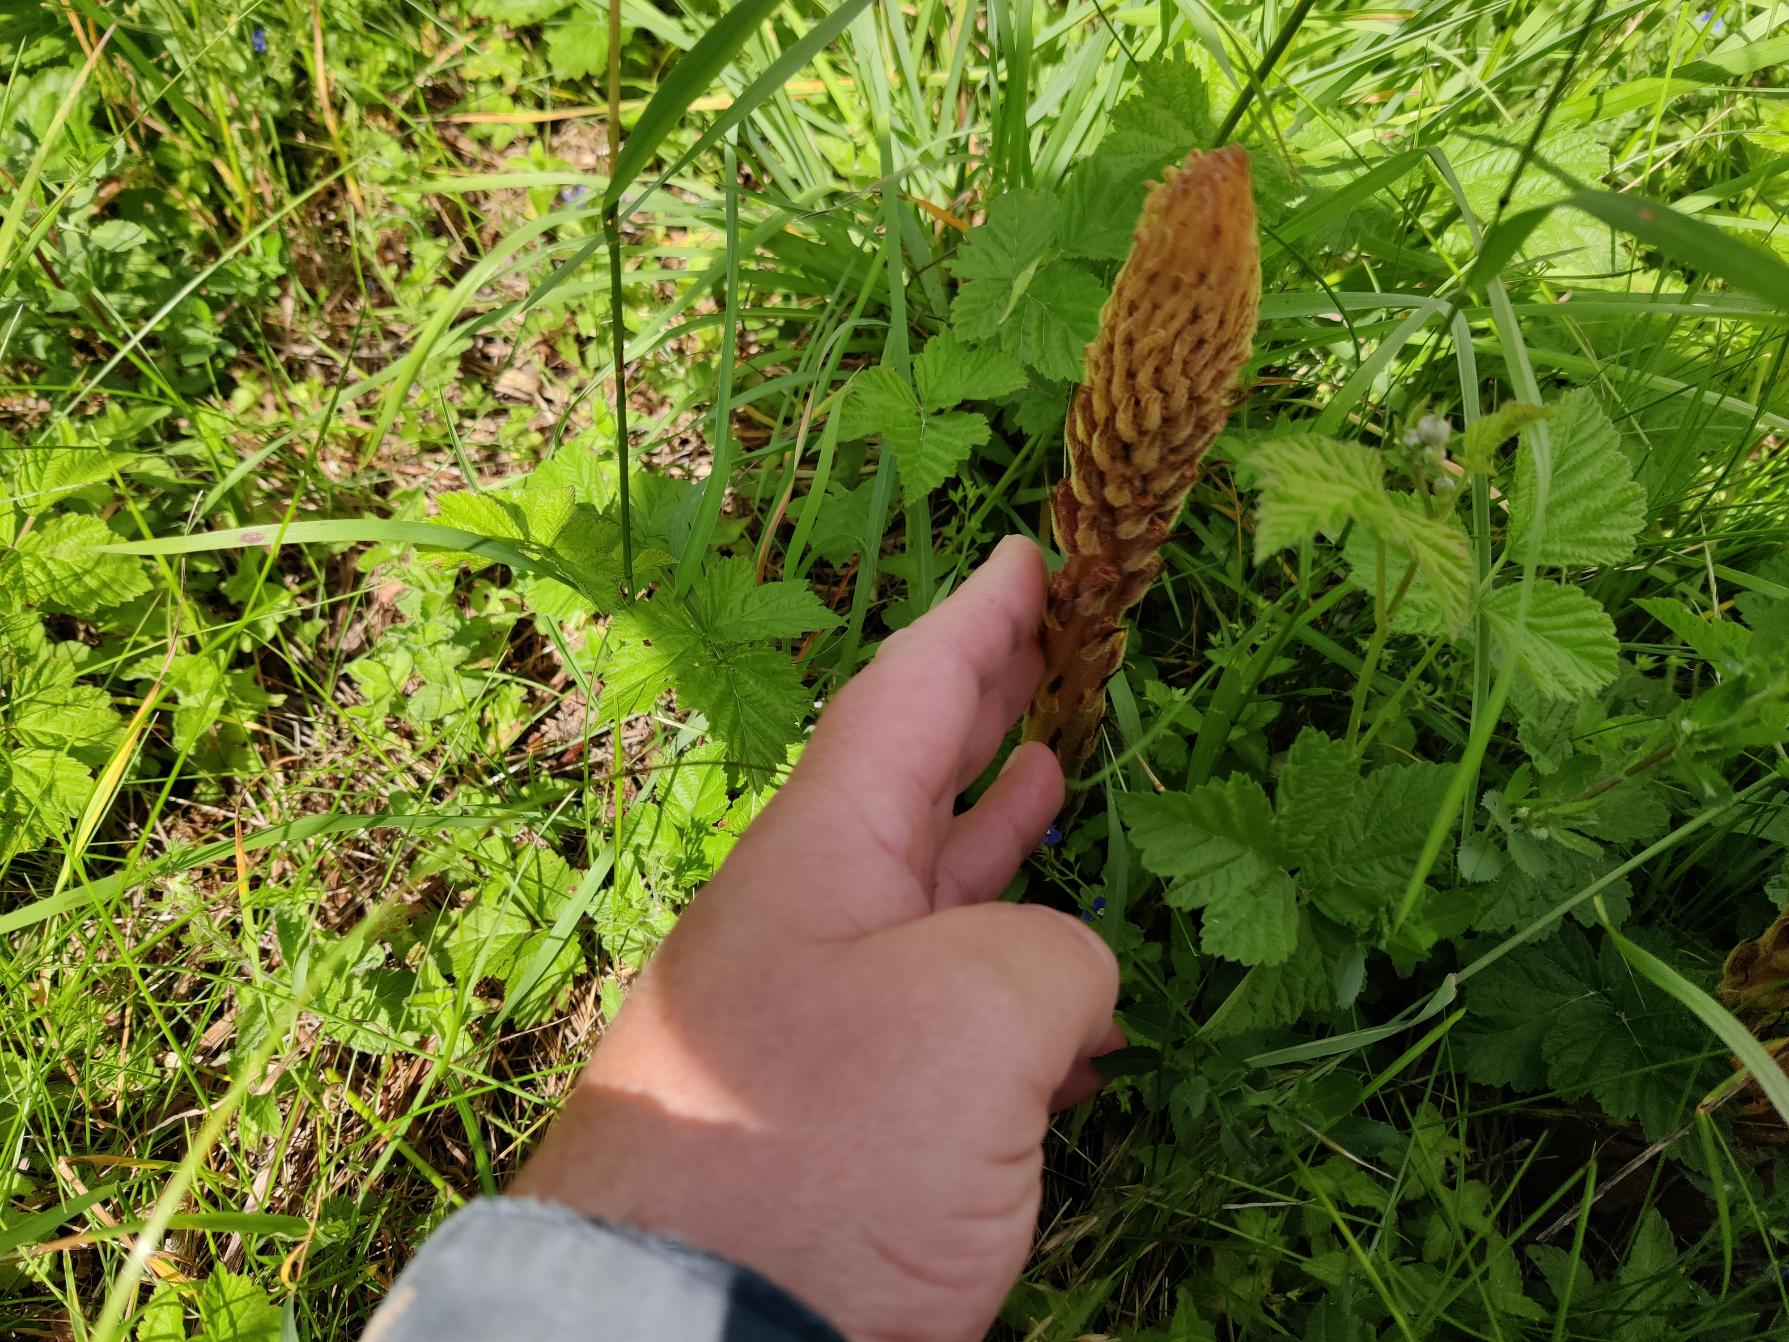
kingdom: Plantae
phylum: Tracheophyta
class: Magnoliopsida
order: Lamiales
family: Orobanchaceae
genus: Orobanche
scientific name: Orobanche elatior
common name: Stor gyvelkvæler
